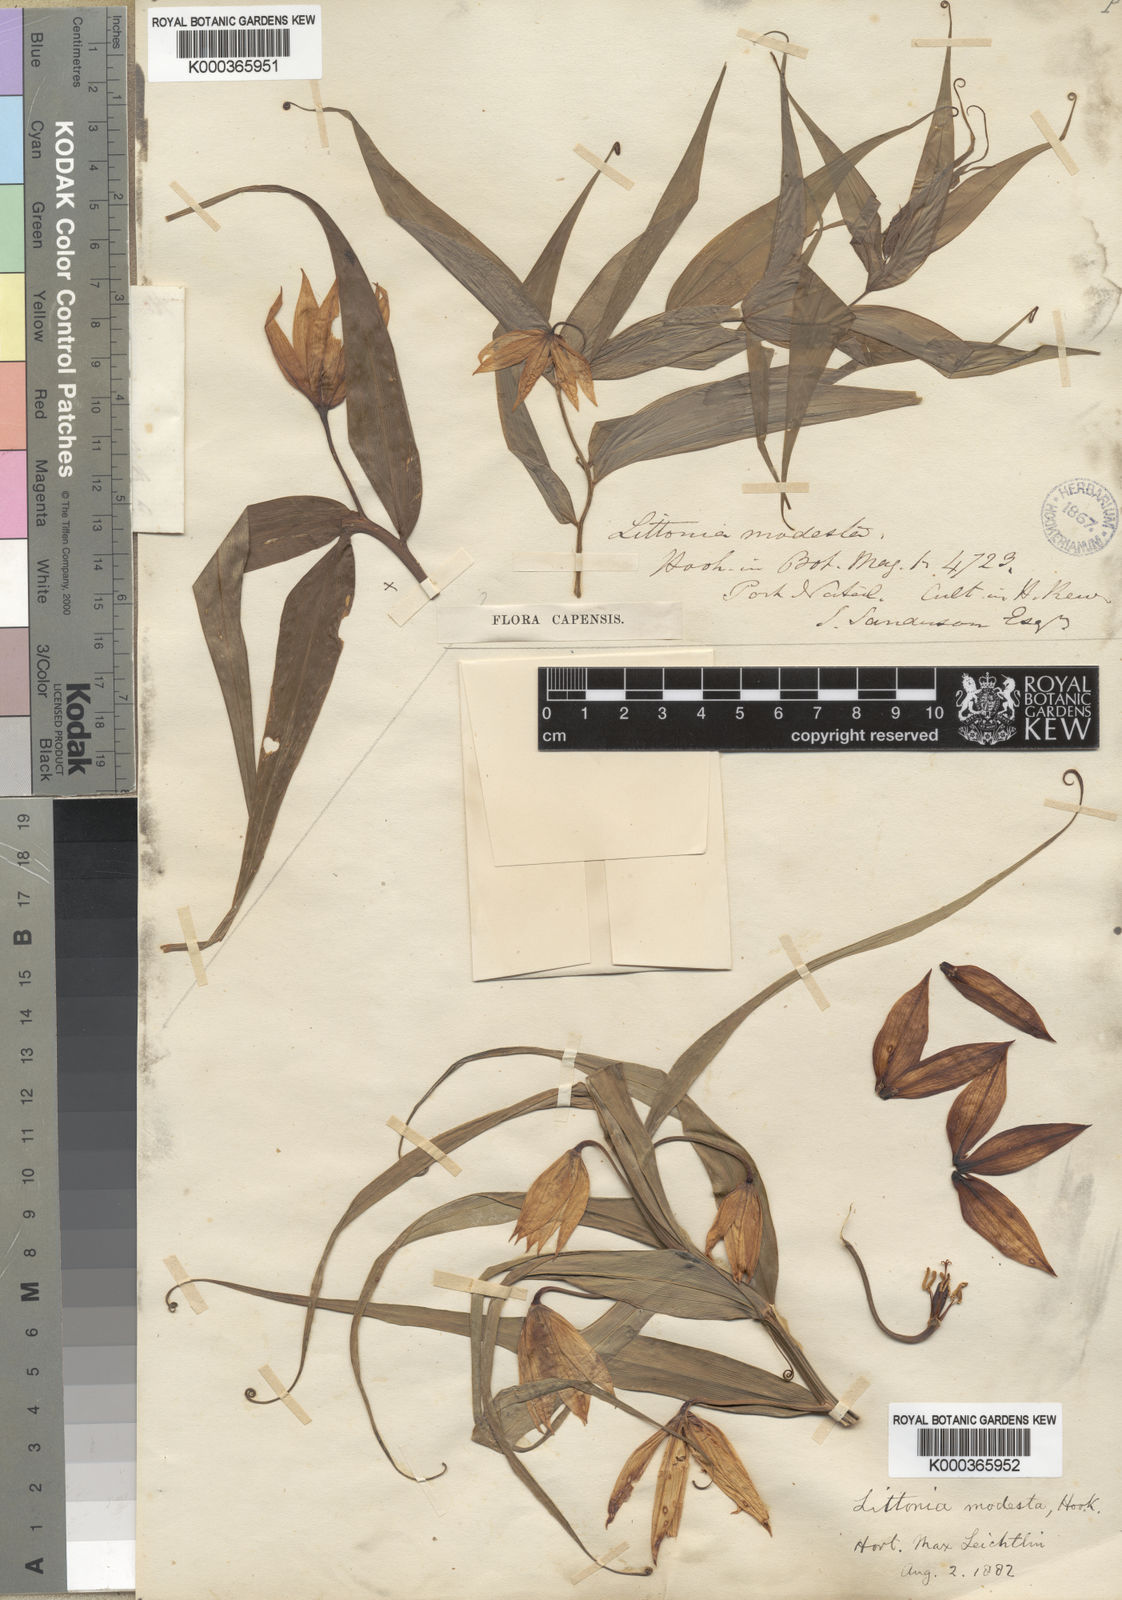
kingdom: Plantae
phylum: Tracheophyta
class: Liliopsida
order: Liliales
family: Colchicaceae
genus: Gloriosa
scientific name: Gloriosa modesta
